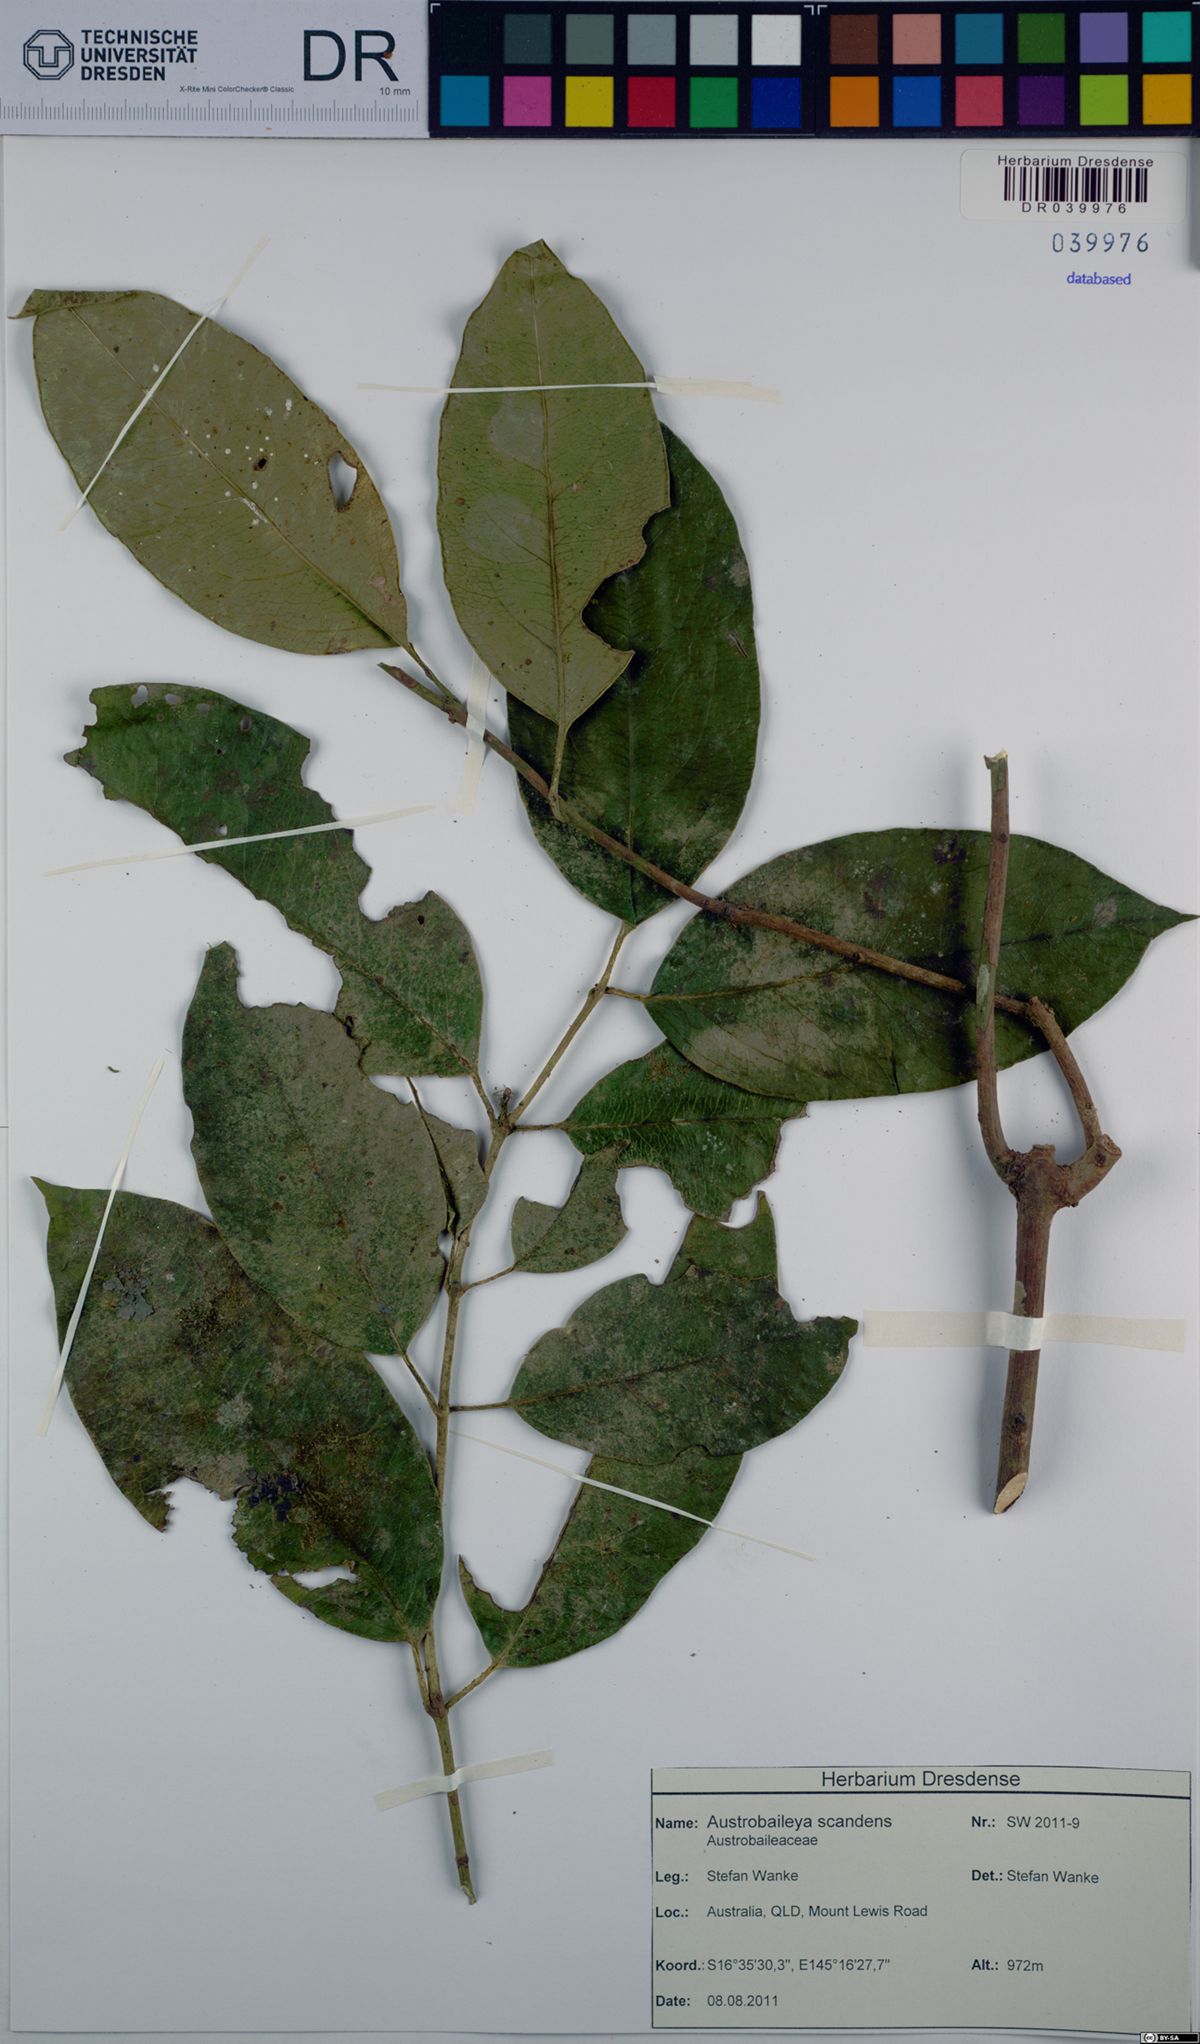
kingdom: Plantae
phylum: Tracheophyta
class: Magnoliopsida
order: Austrobaileyales
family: Austrobaileyaceae
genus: Austrobaileya
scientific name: Austrobaileya scandens
